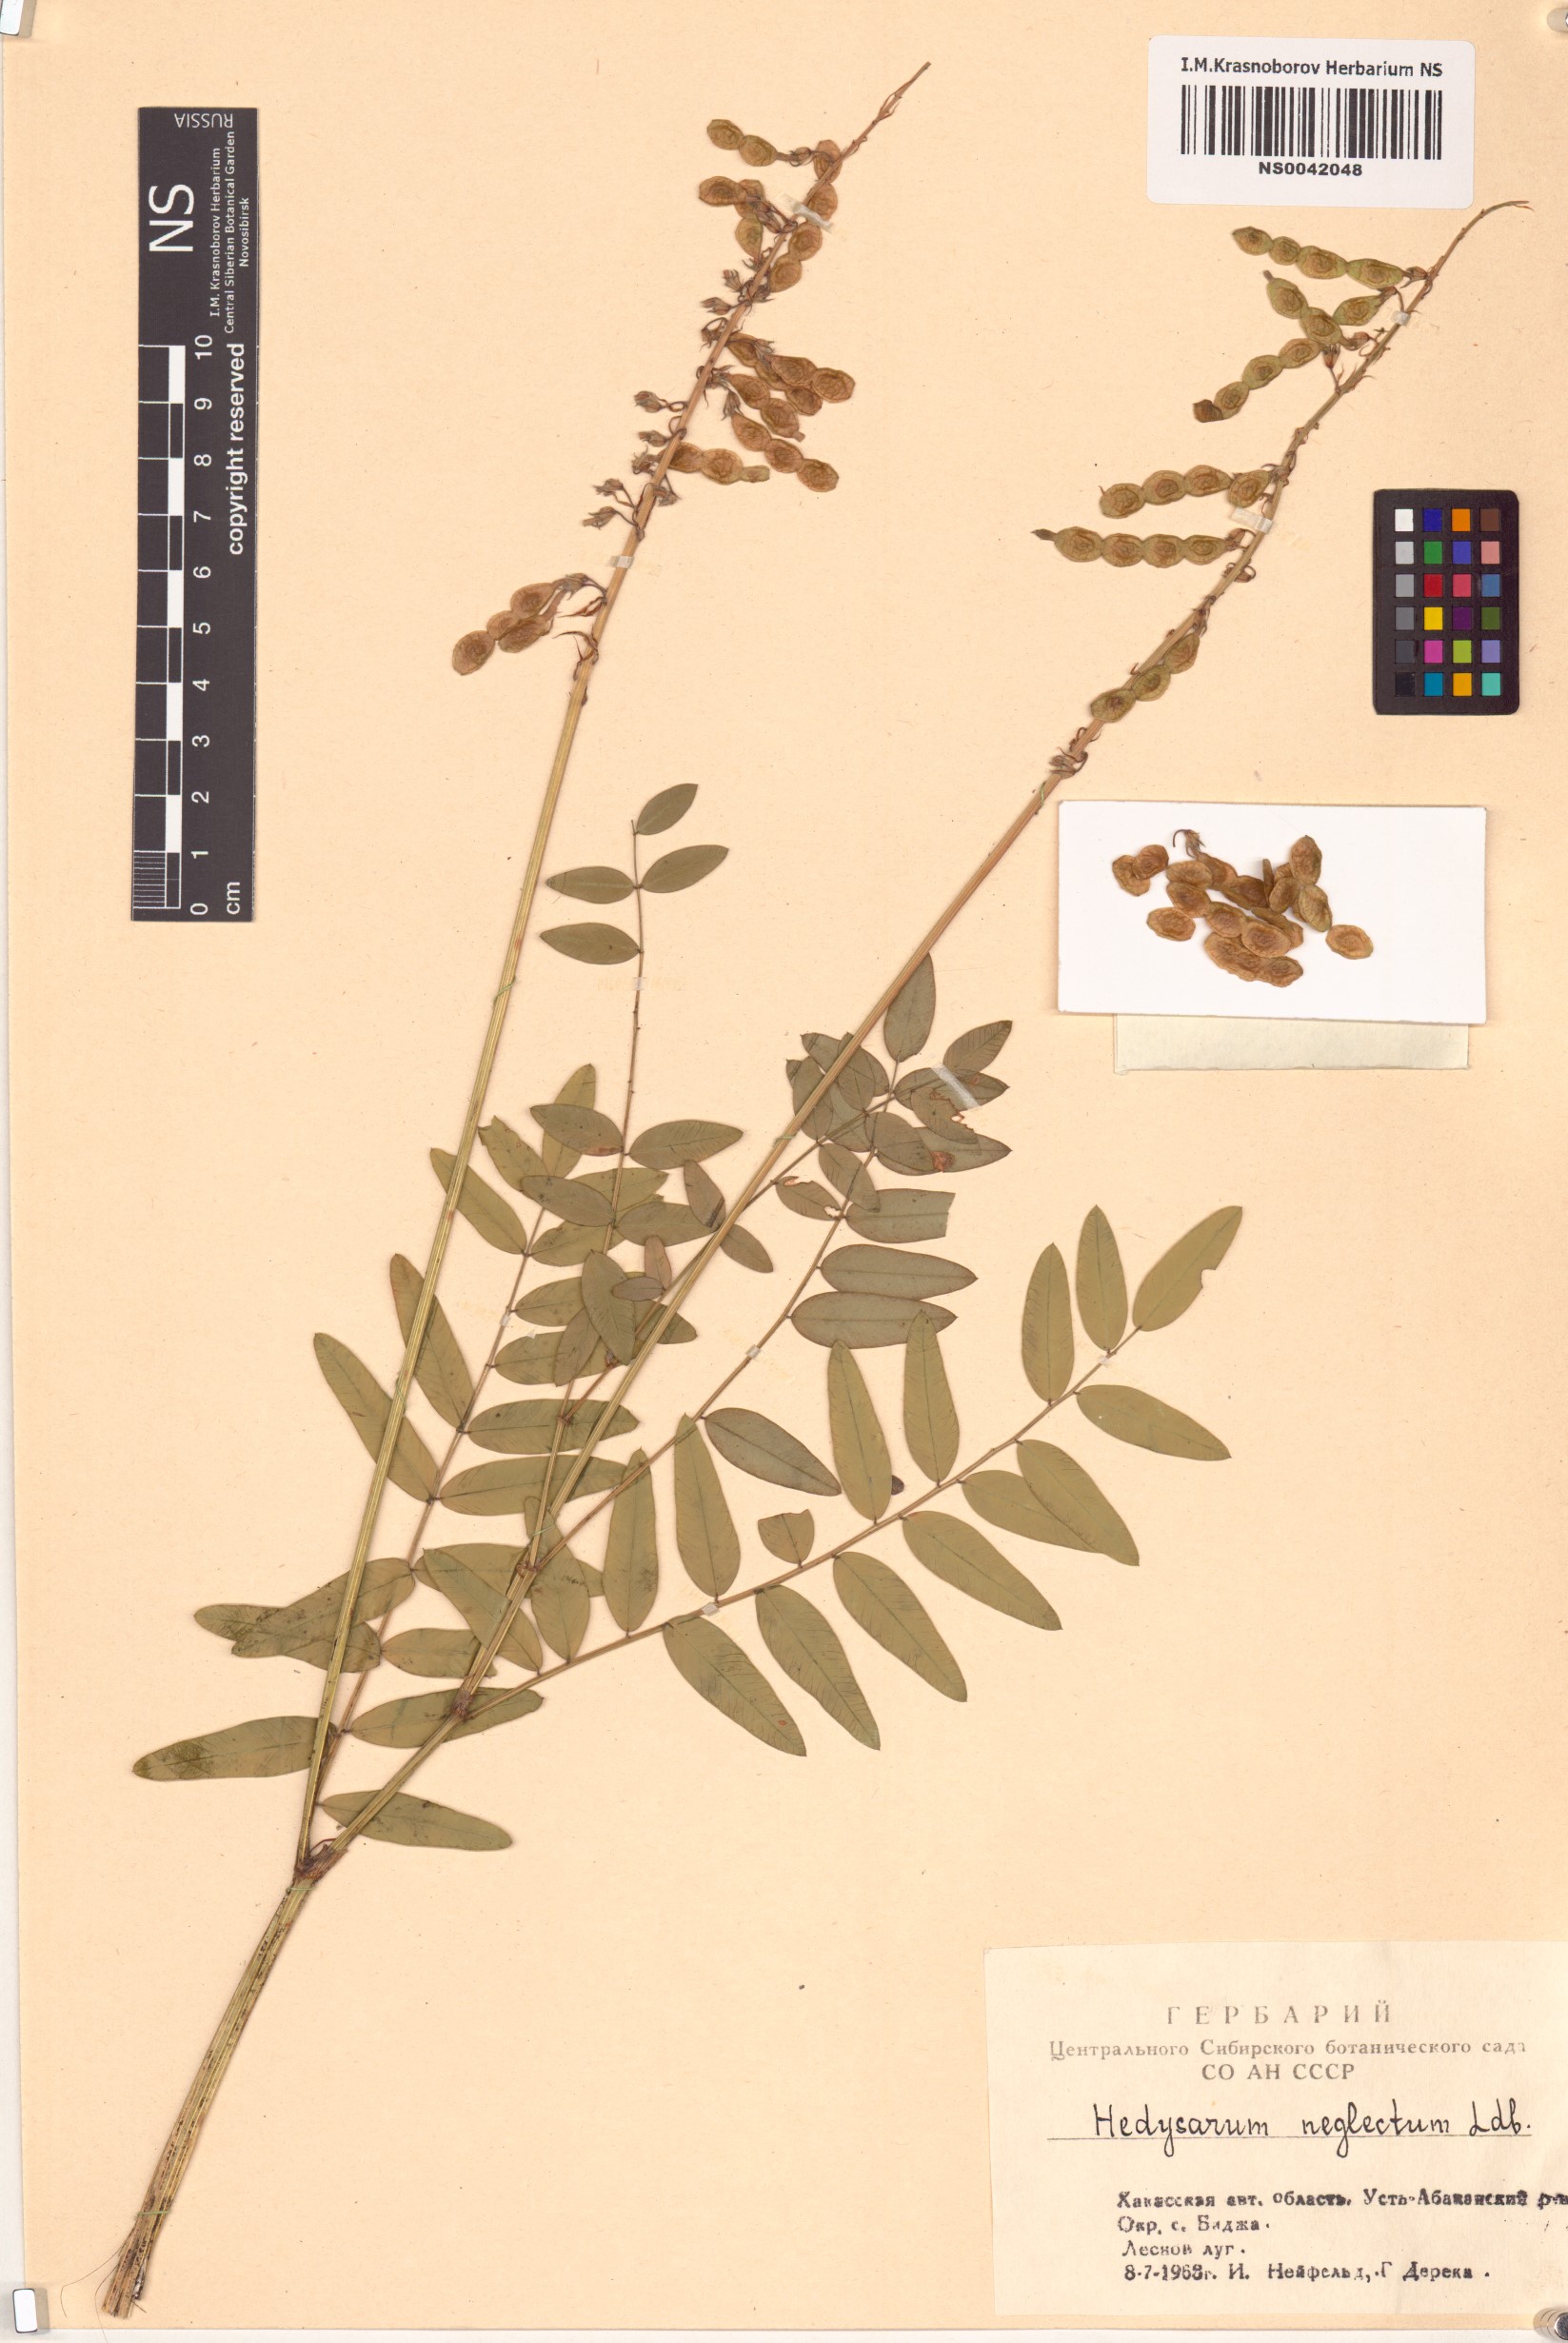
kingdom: Plantae
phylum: Tracheophyta
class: Magnoliopsida
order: Fabales
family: Fabaceae
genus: Hedysarum
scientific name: Hedysarum neglectum
